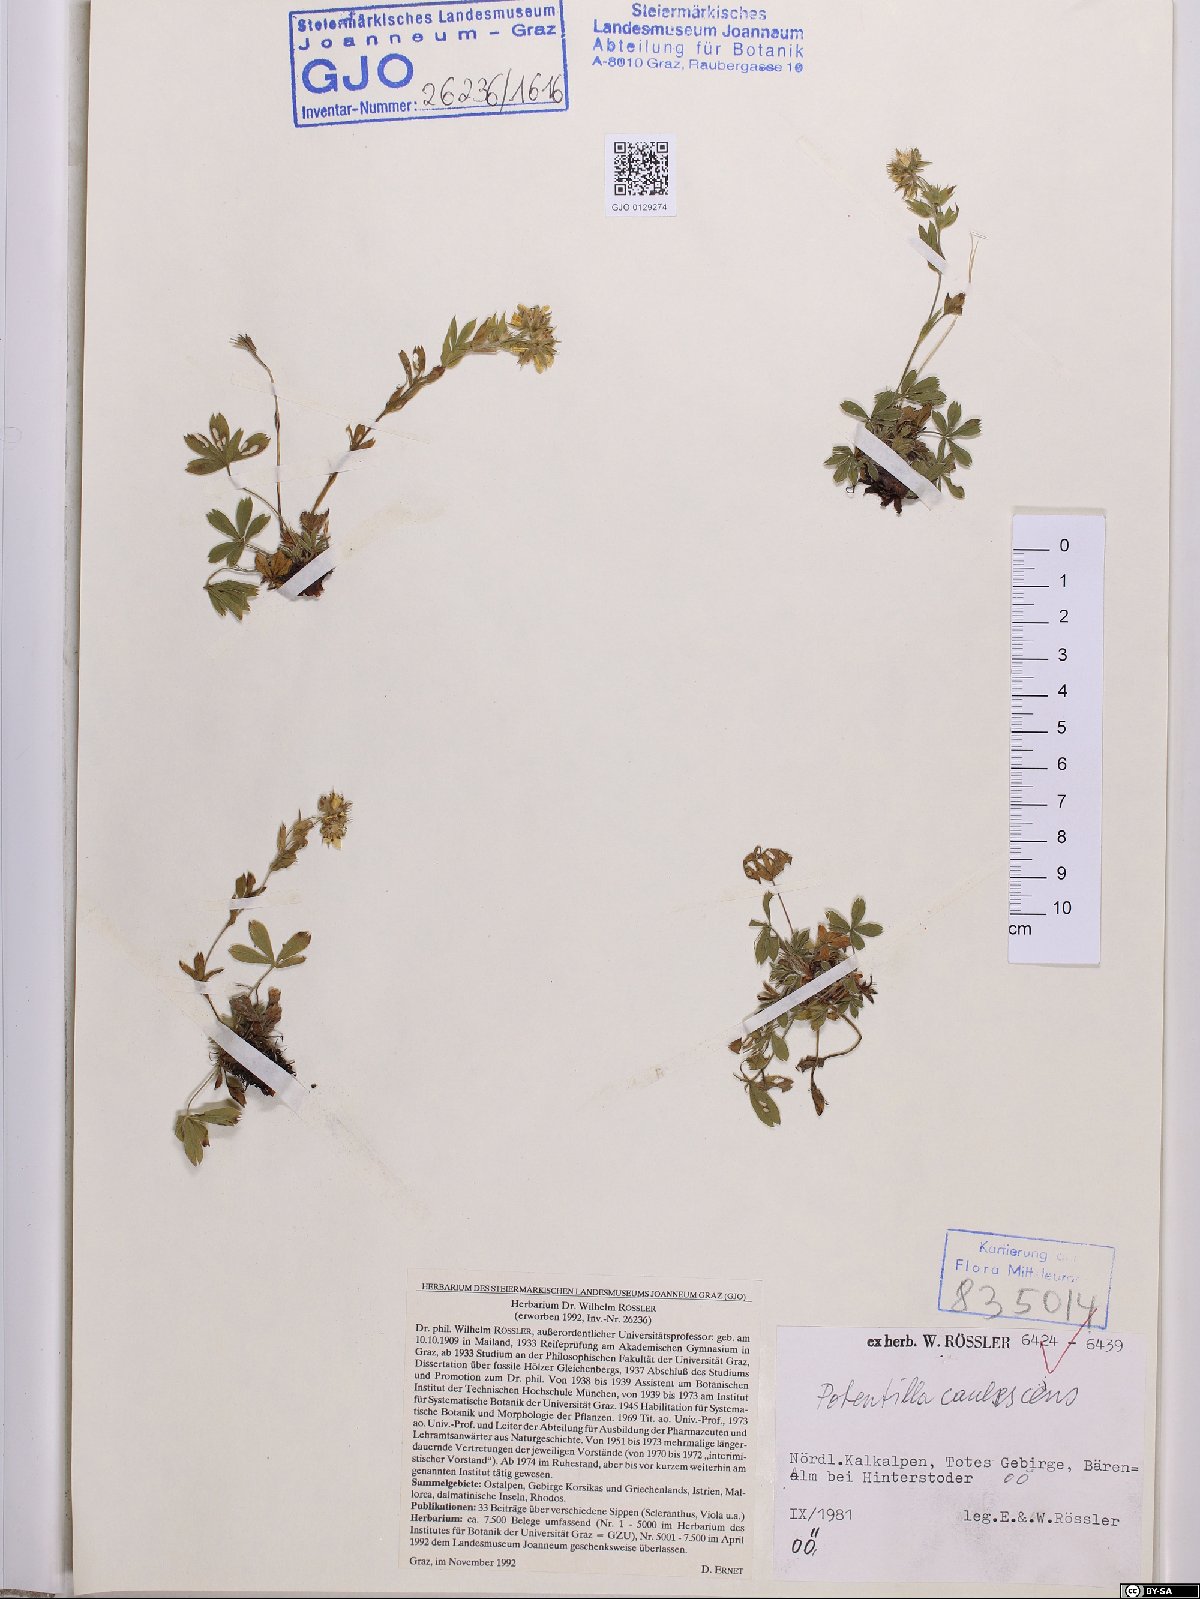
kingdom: Plantae
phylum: Tracheophyta
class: Magnoliopsida
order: Rosales
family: Rosaceae
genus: Potentilla
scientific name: Potentilla caulescens
